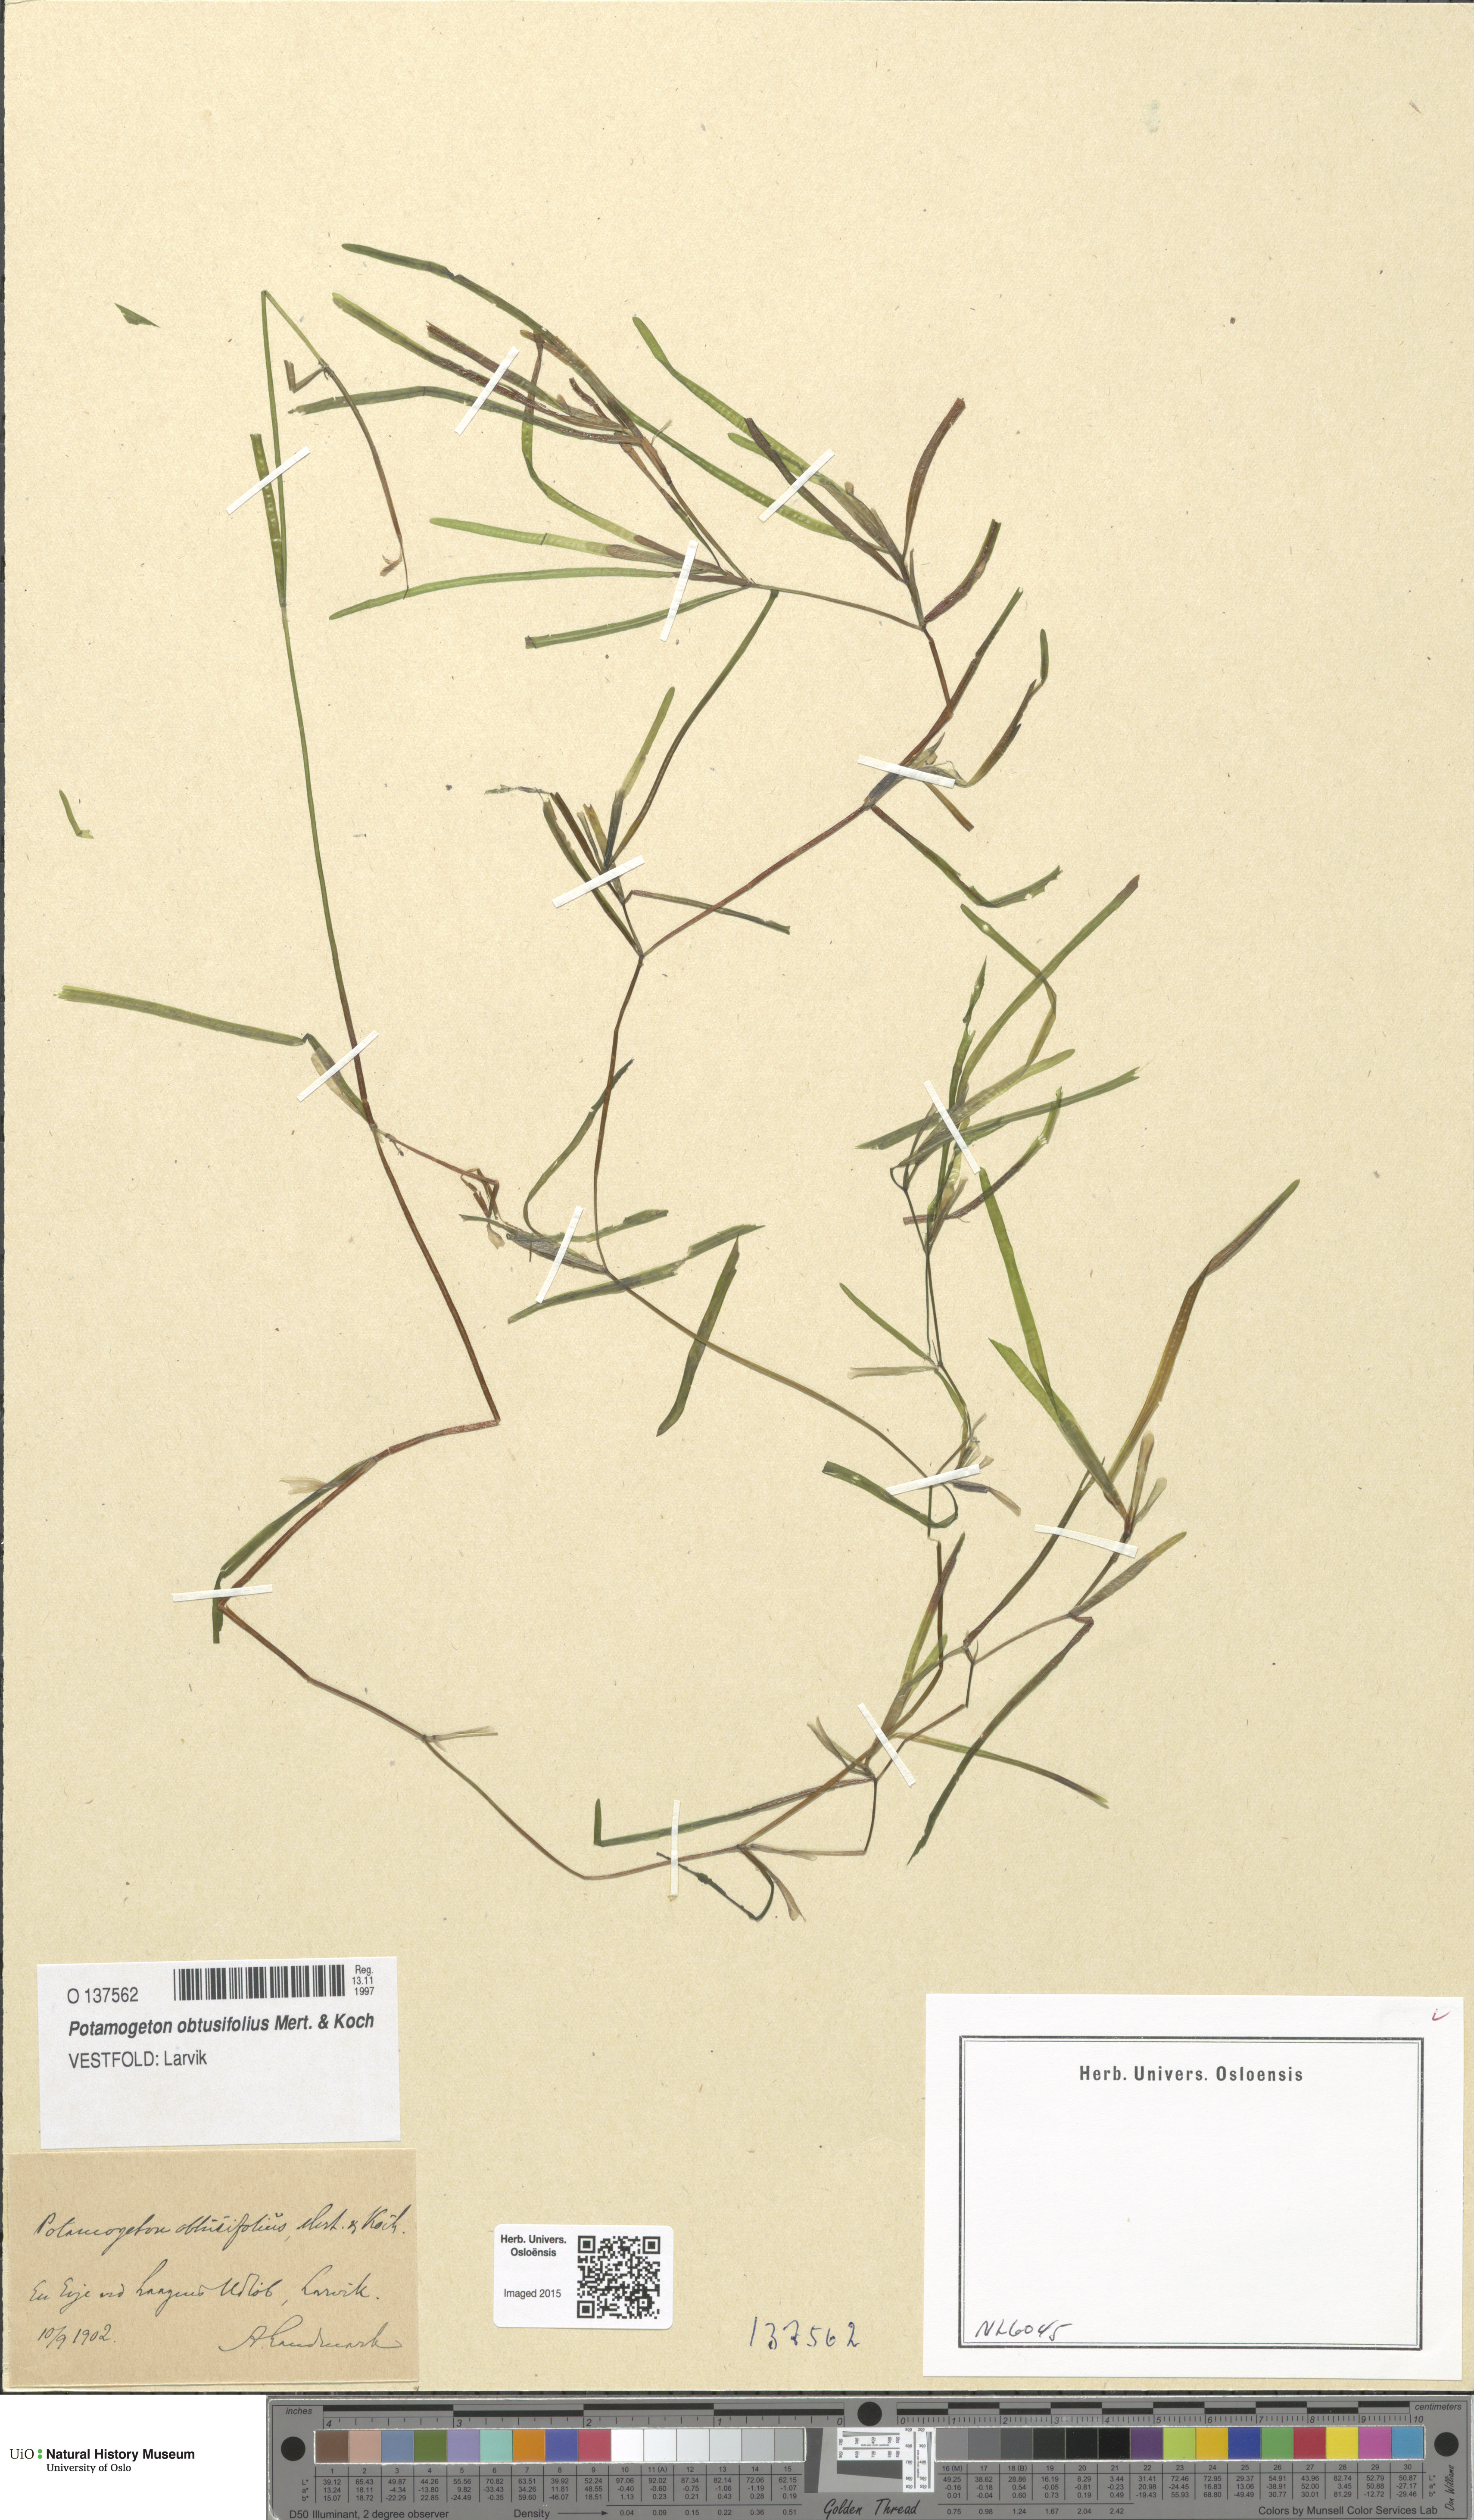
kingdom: Plantae
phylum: Tracheophyta
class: Liliopsida
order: Alismatales
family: Potamogetonaceae
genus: Potamogeton
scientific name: Potamogeton obtusifolius
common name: Blunt-leaved pondweed
